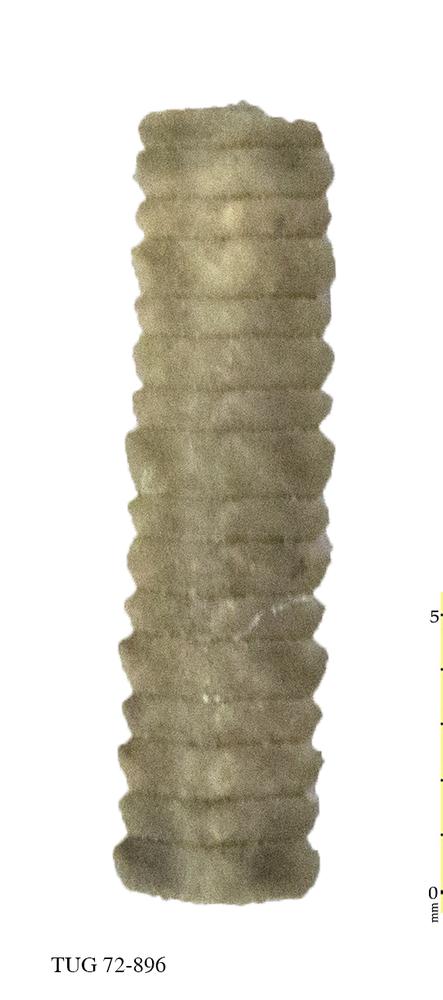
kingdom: Animalia
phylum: Echinodermata
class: Crinoidea
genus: Baltocrinus
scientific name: Baltocrinus
